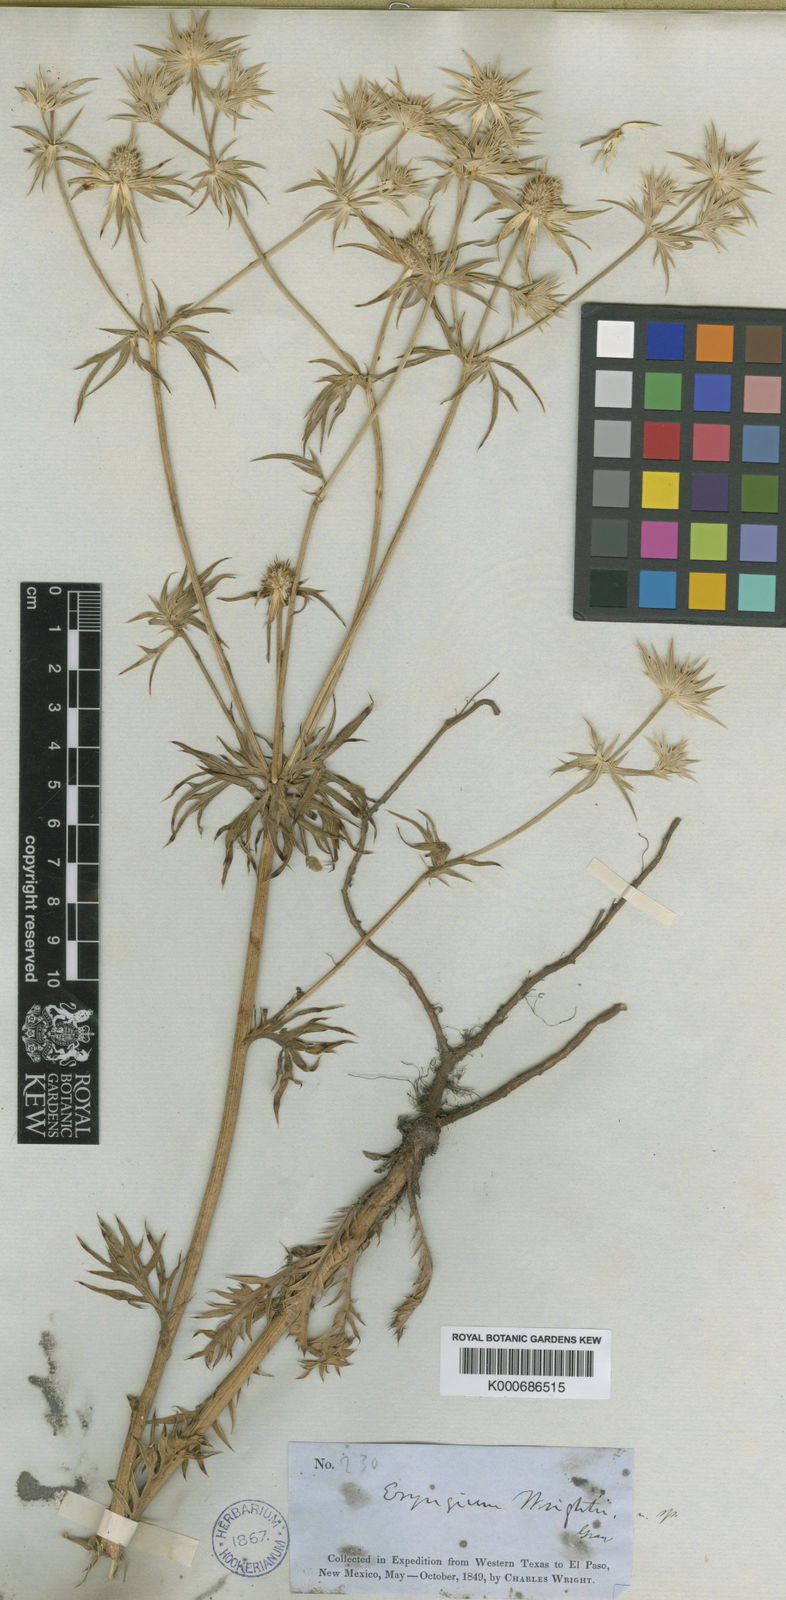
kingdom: Plantae
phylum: Tracheophyta
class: Magnoliopsida
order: Apiales
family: Apiaceae
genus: Eryngium
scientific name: Eryngium heterophyllum
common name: Mexican thistle
